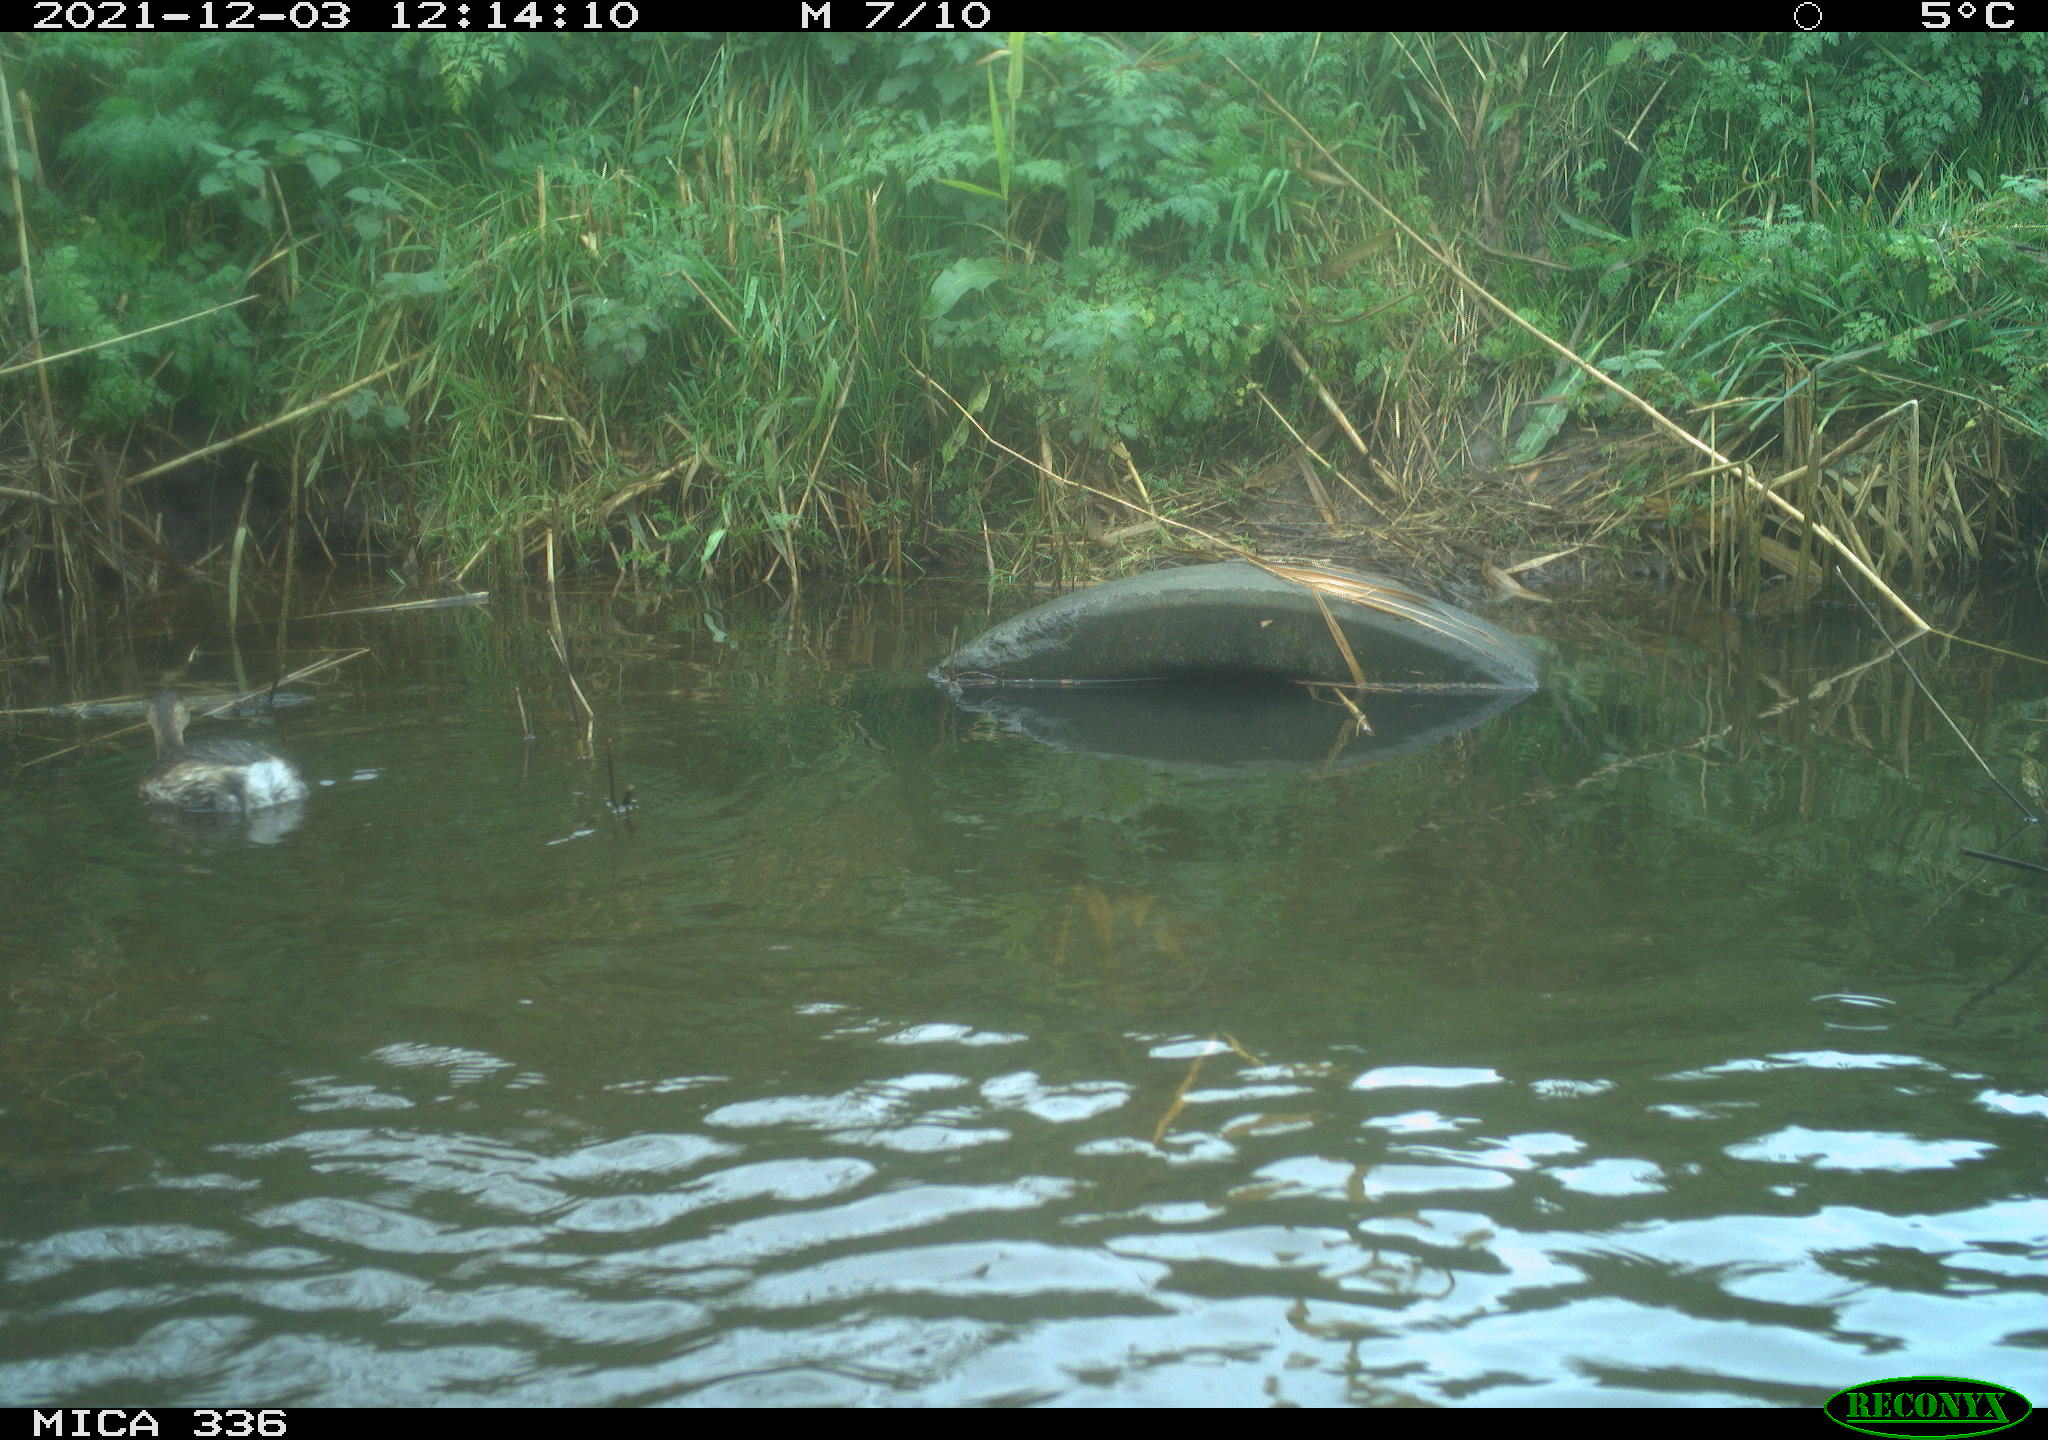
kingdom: Animalia
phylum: Chordata
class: Aves
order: Podicipediformes
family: Podicipedidae
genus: Tachybaptus
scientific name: Tachybaptus ruficollis
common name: Little grebe
